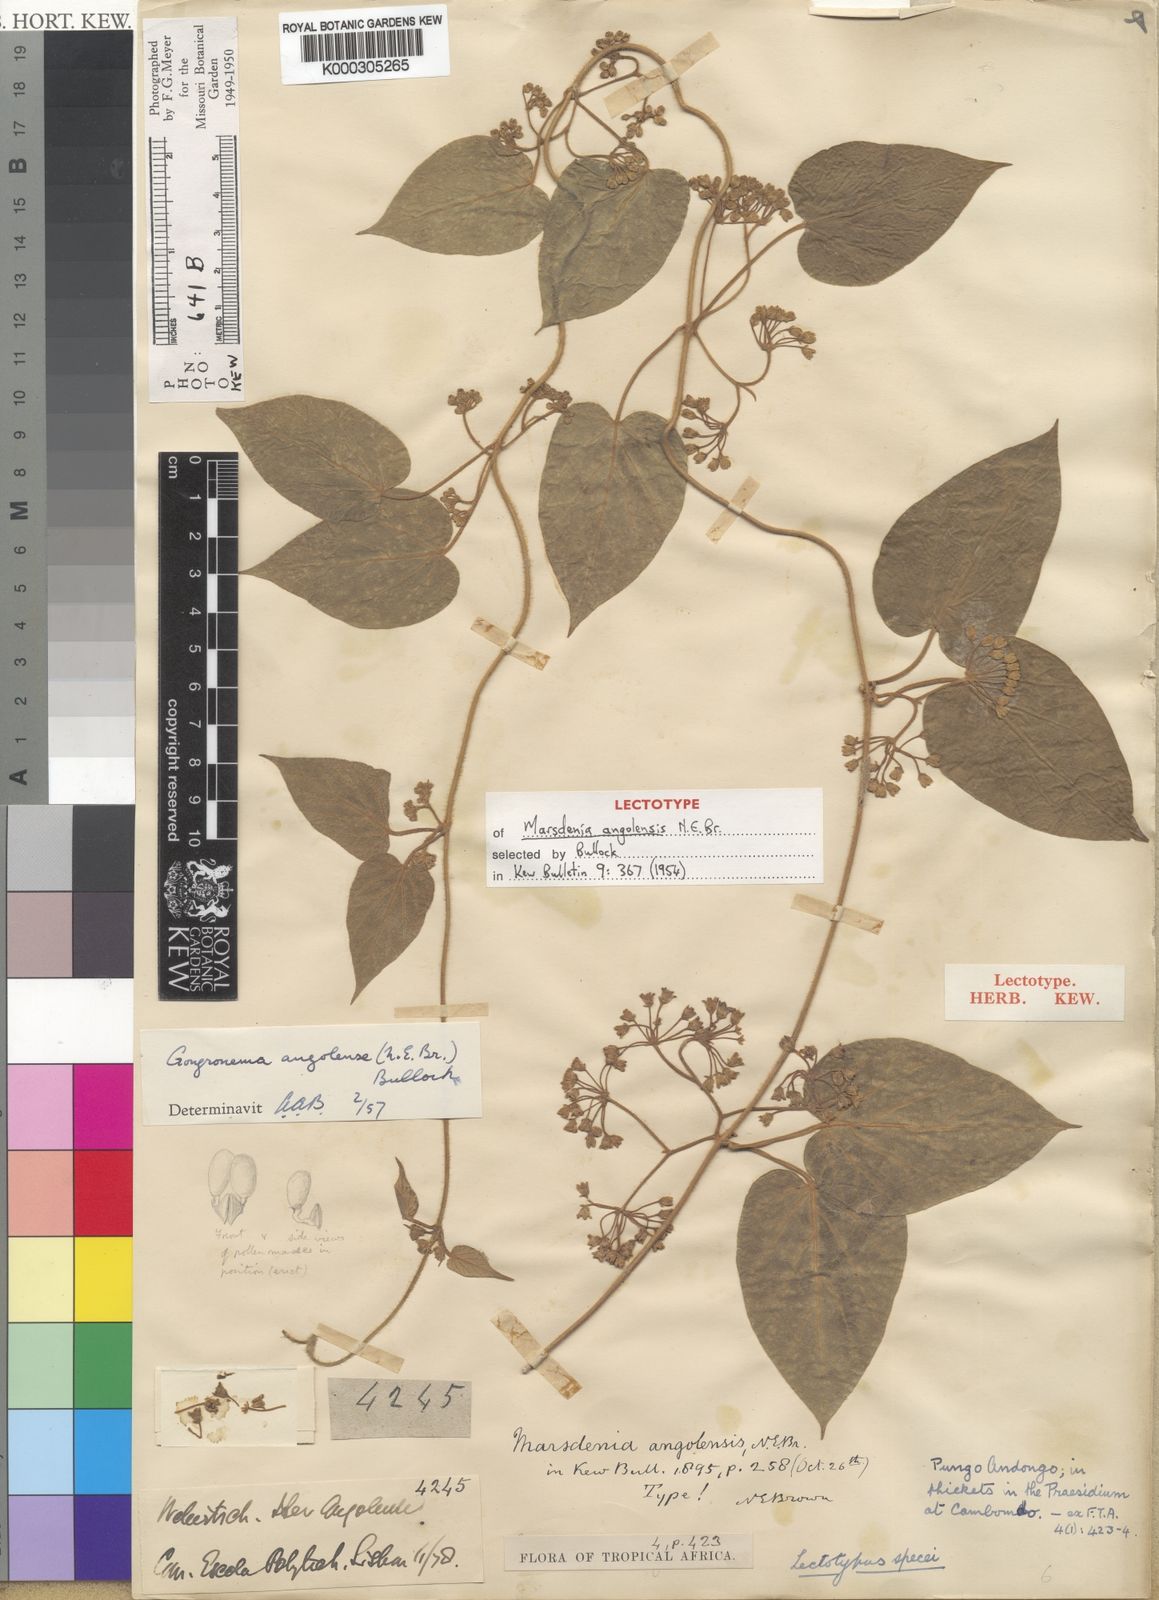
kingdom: Plantae
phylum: Tracheophyta
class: Magnoliopsida
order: Gentianales
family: Apocynaceae
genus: Gongronemopsis
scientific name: Gongronemopsis angolensis
